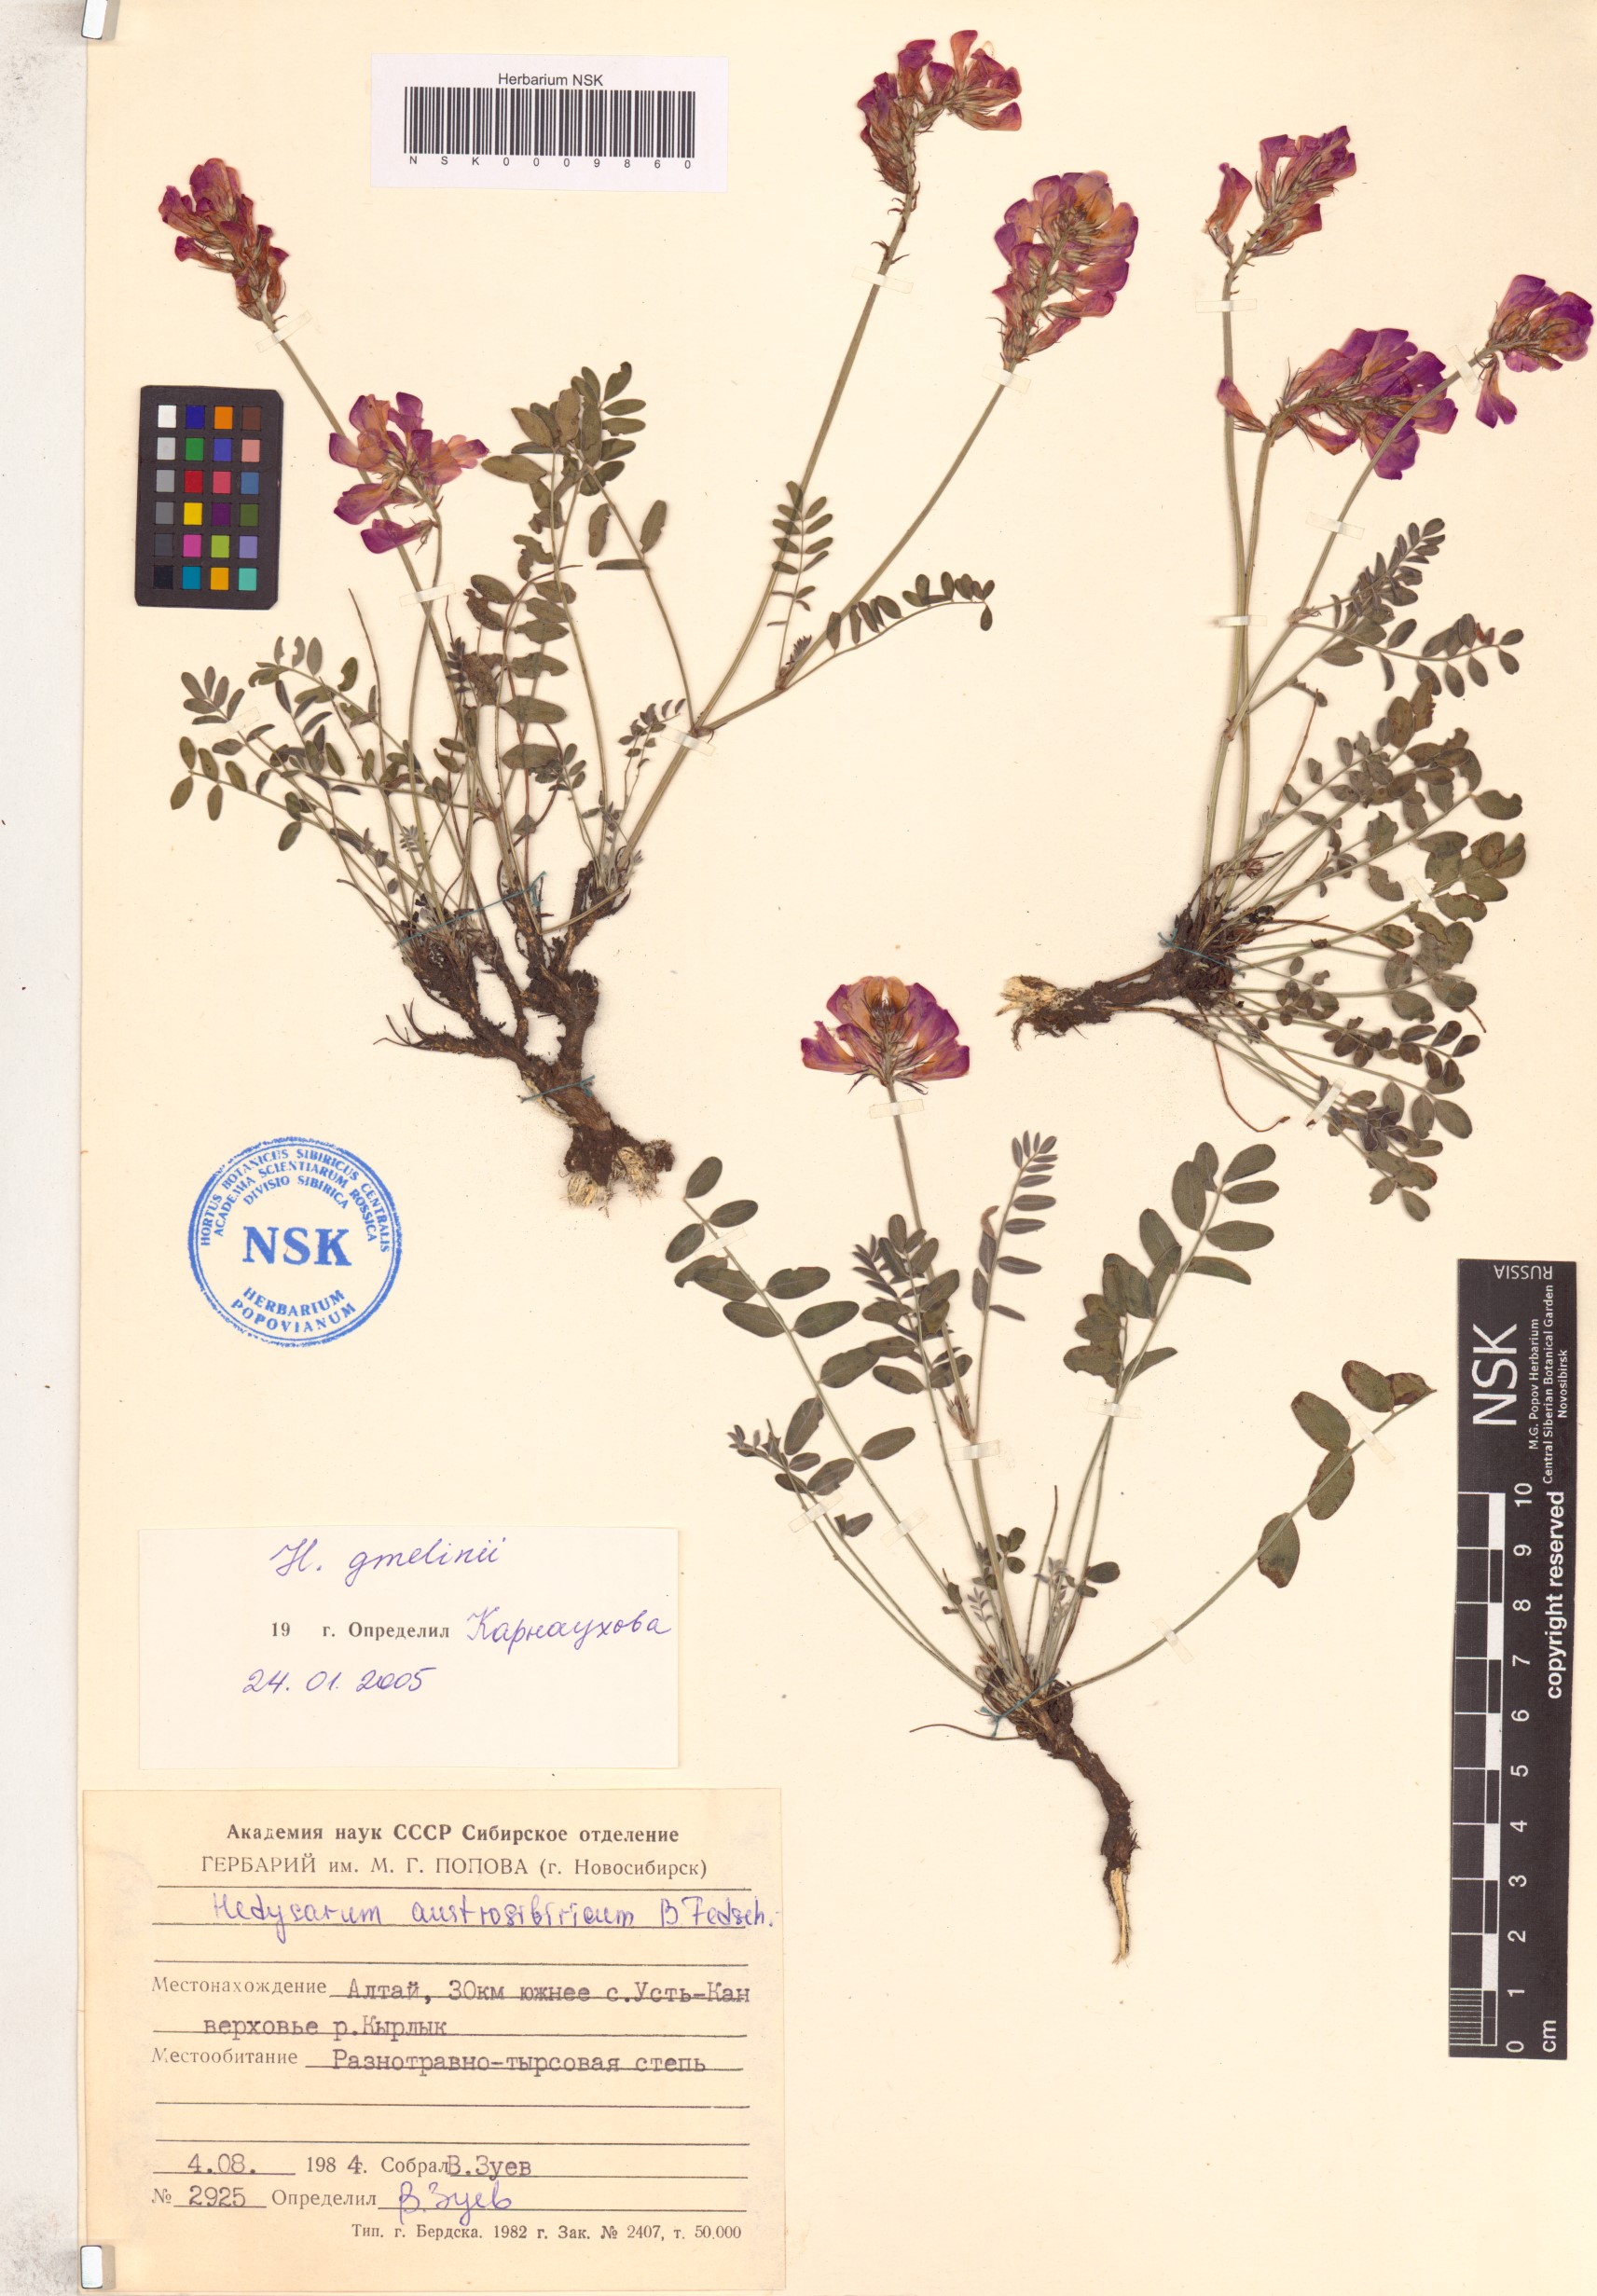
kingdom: Plantae
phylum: Tracheophyta
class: Magnoliopsida
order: Fabales
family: Fabaceae
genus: Hedysarum
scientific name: Hedysarum gmelinii
